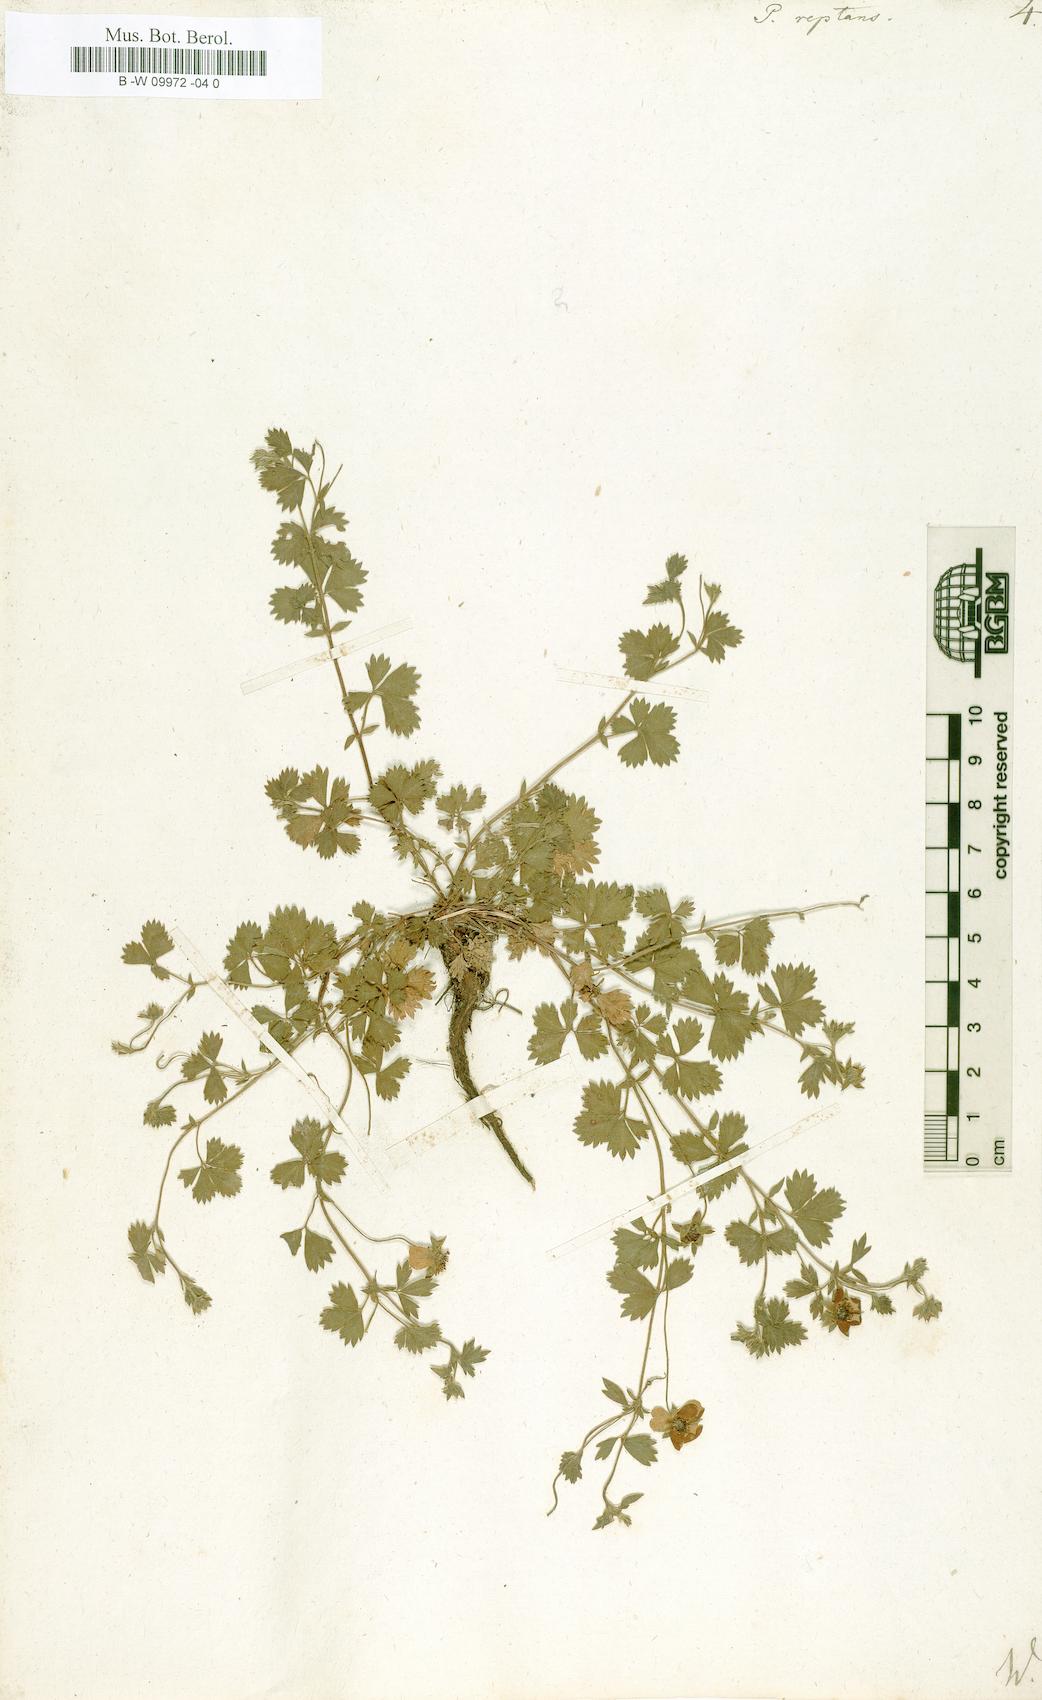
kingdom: Plantae
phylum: Tracheophyta
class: Magnoliopsida
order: Rosales
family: Rosaceae
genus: Potentilla
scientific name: Potentilla reptans
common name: Creeping cinquefoil
